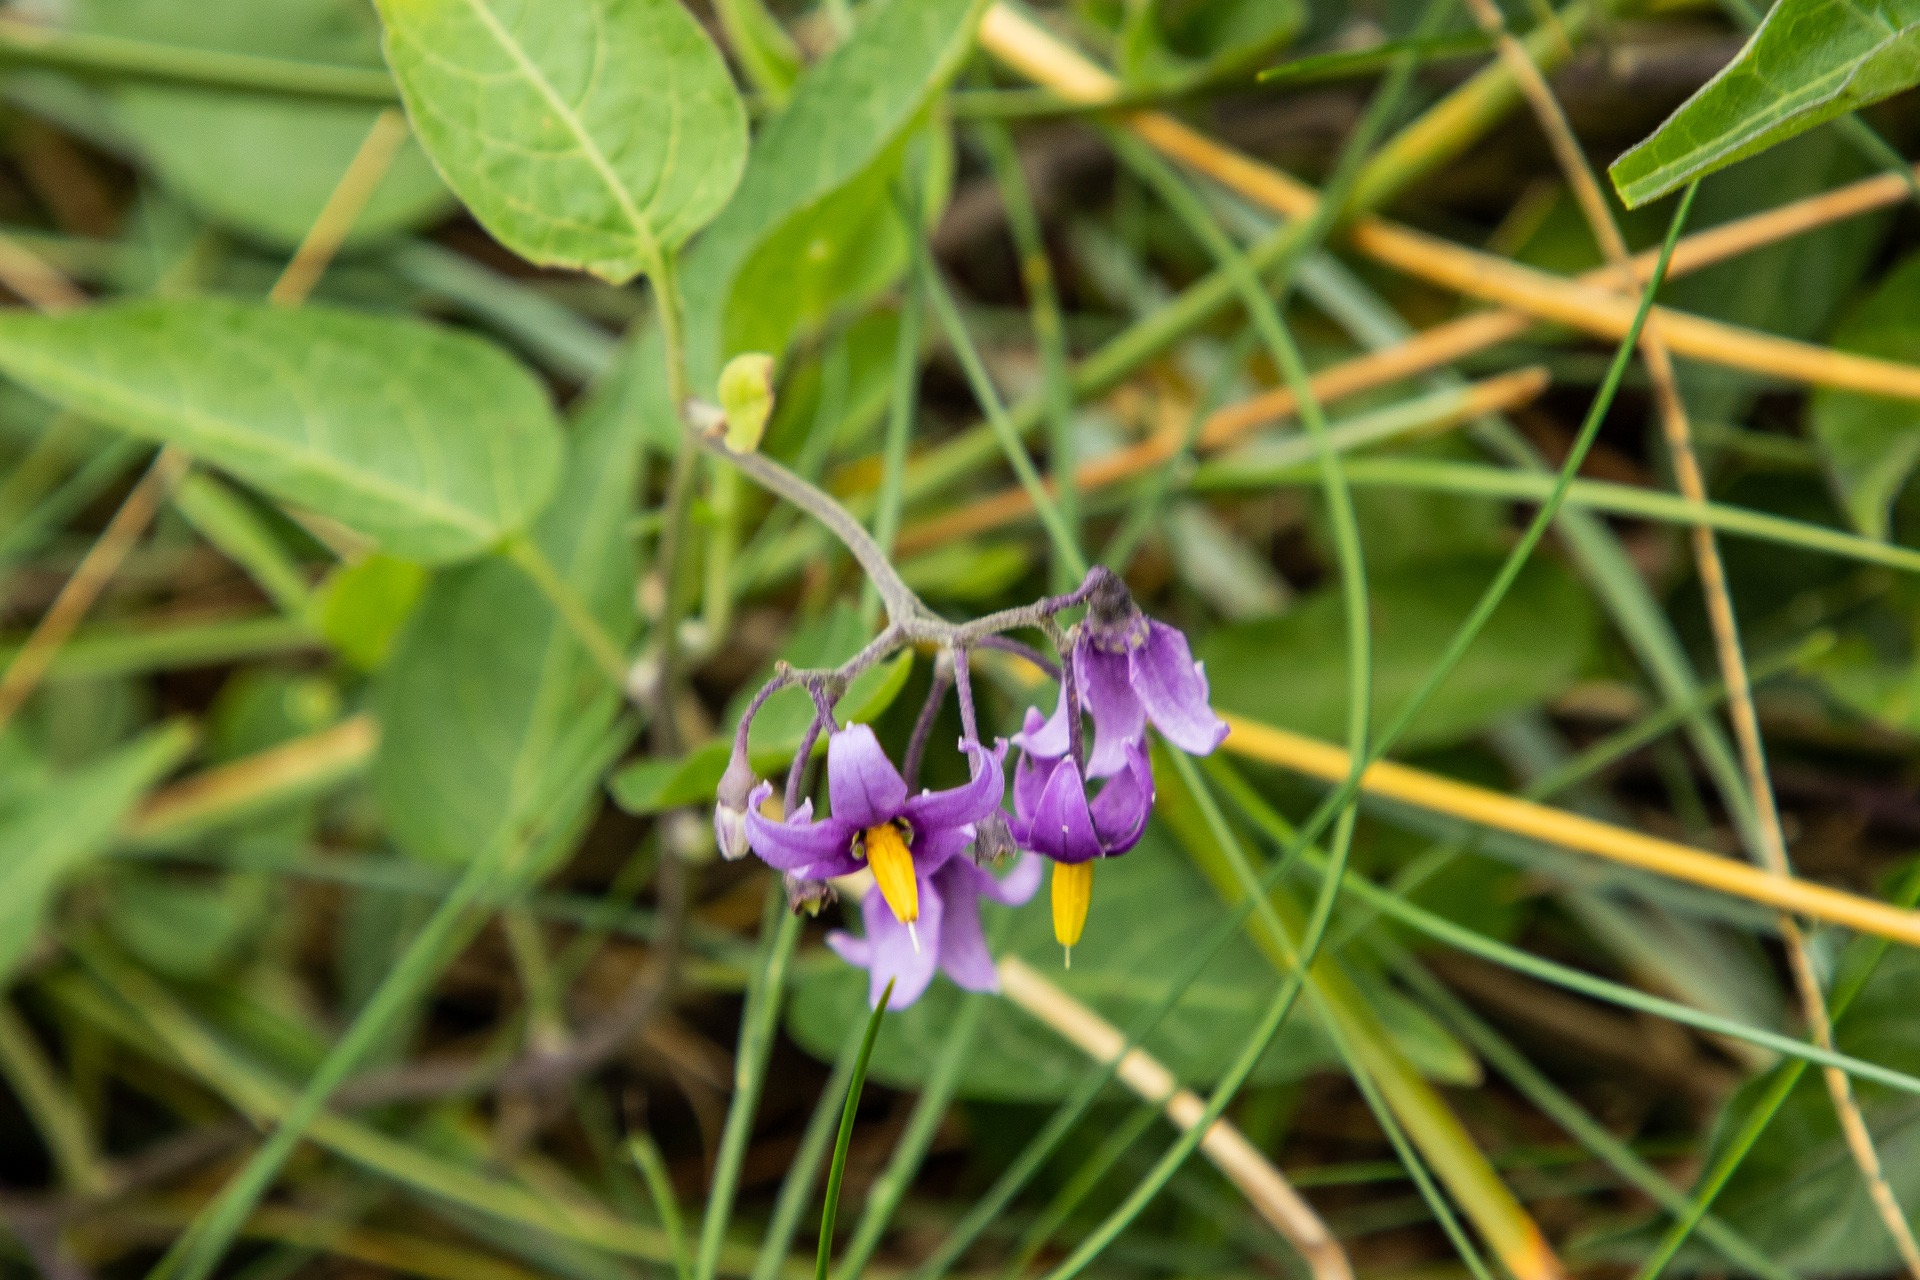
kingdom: Plantae
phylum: Tracheophyta
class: Magnoliopsida
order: Solanales
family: Solanaceae
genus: Solanum
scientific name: Solanum dulcamara
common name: Bittersød natskygge
